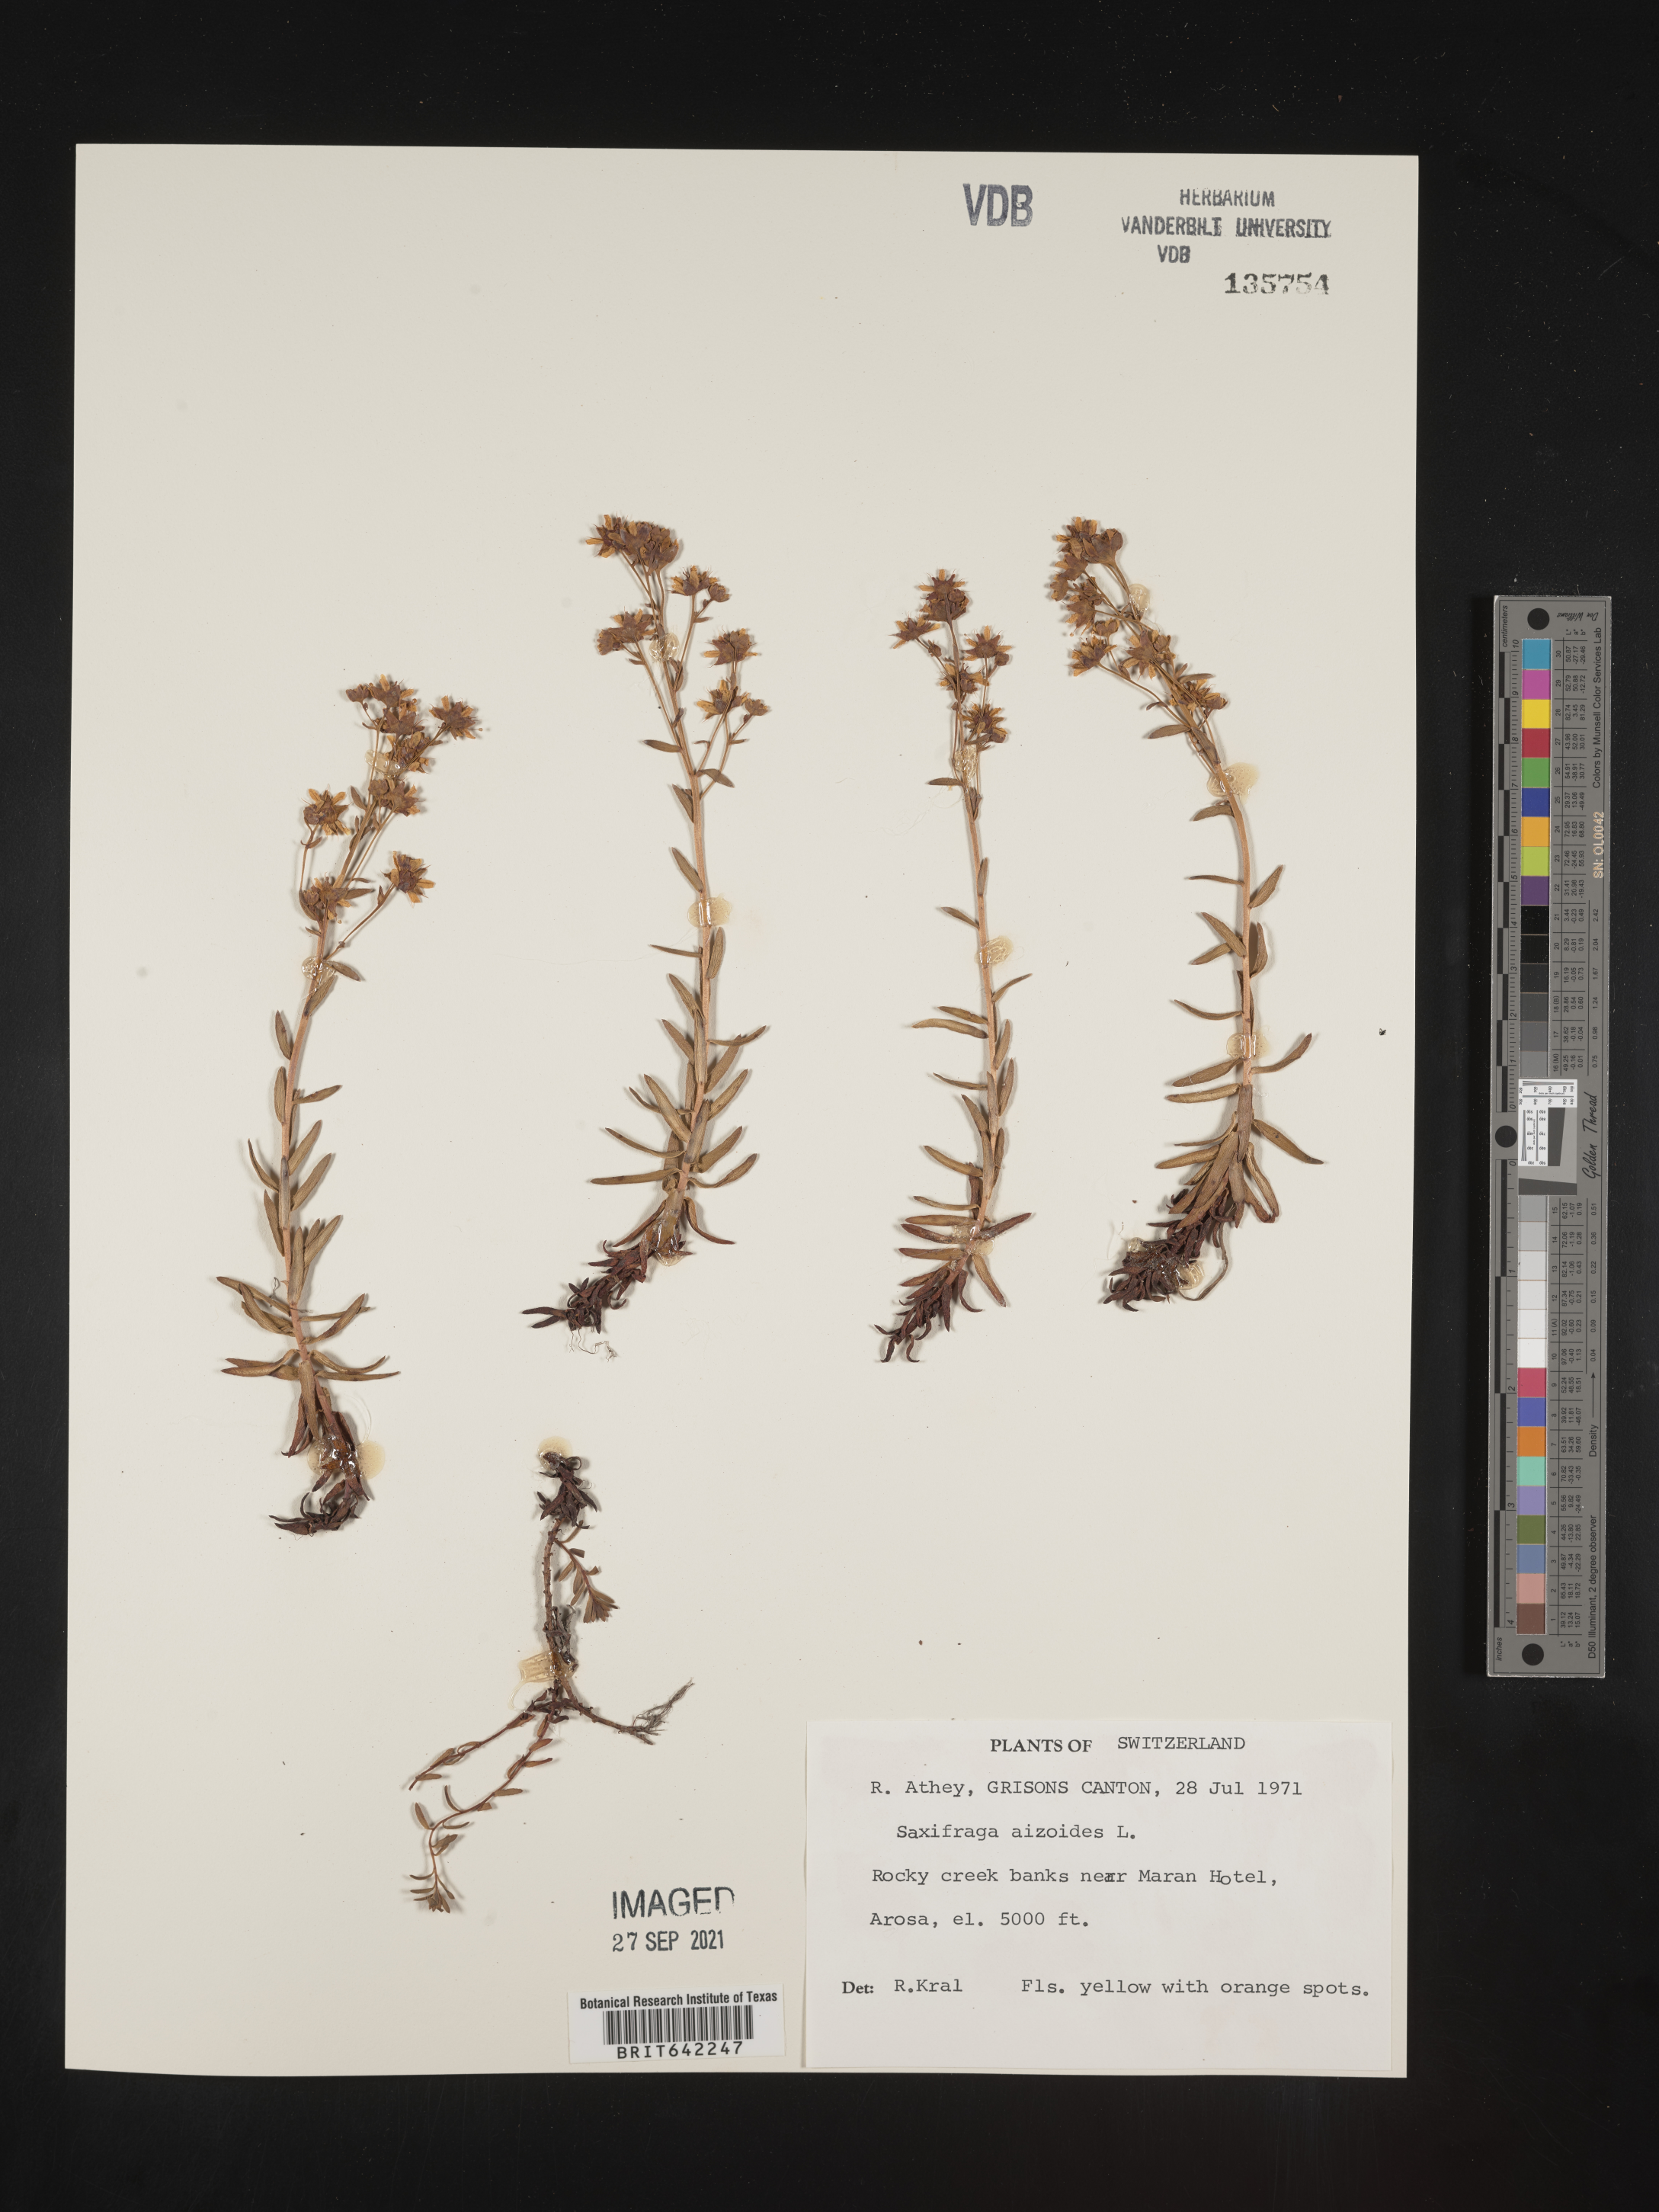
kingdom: Plantae
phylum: Tracheophyta
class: Magnoliopsida
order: Saxifragales
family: Saxifragaceae
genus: Saxifraga
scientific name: Saxifraga
